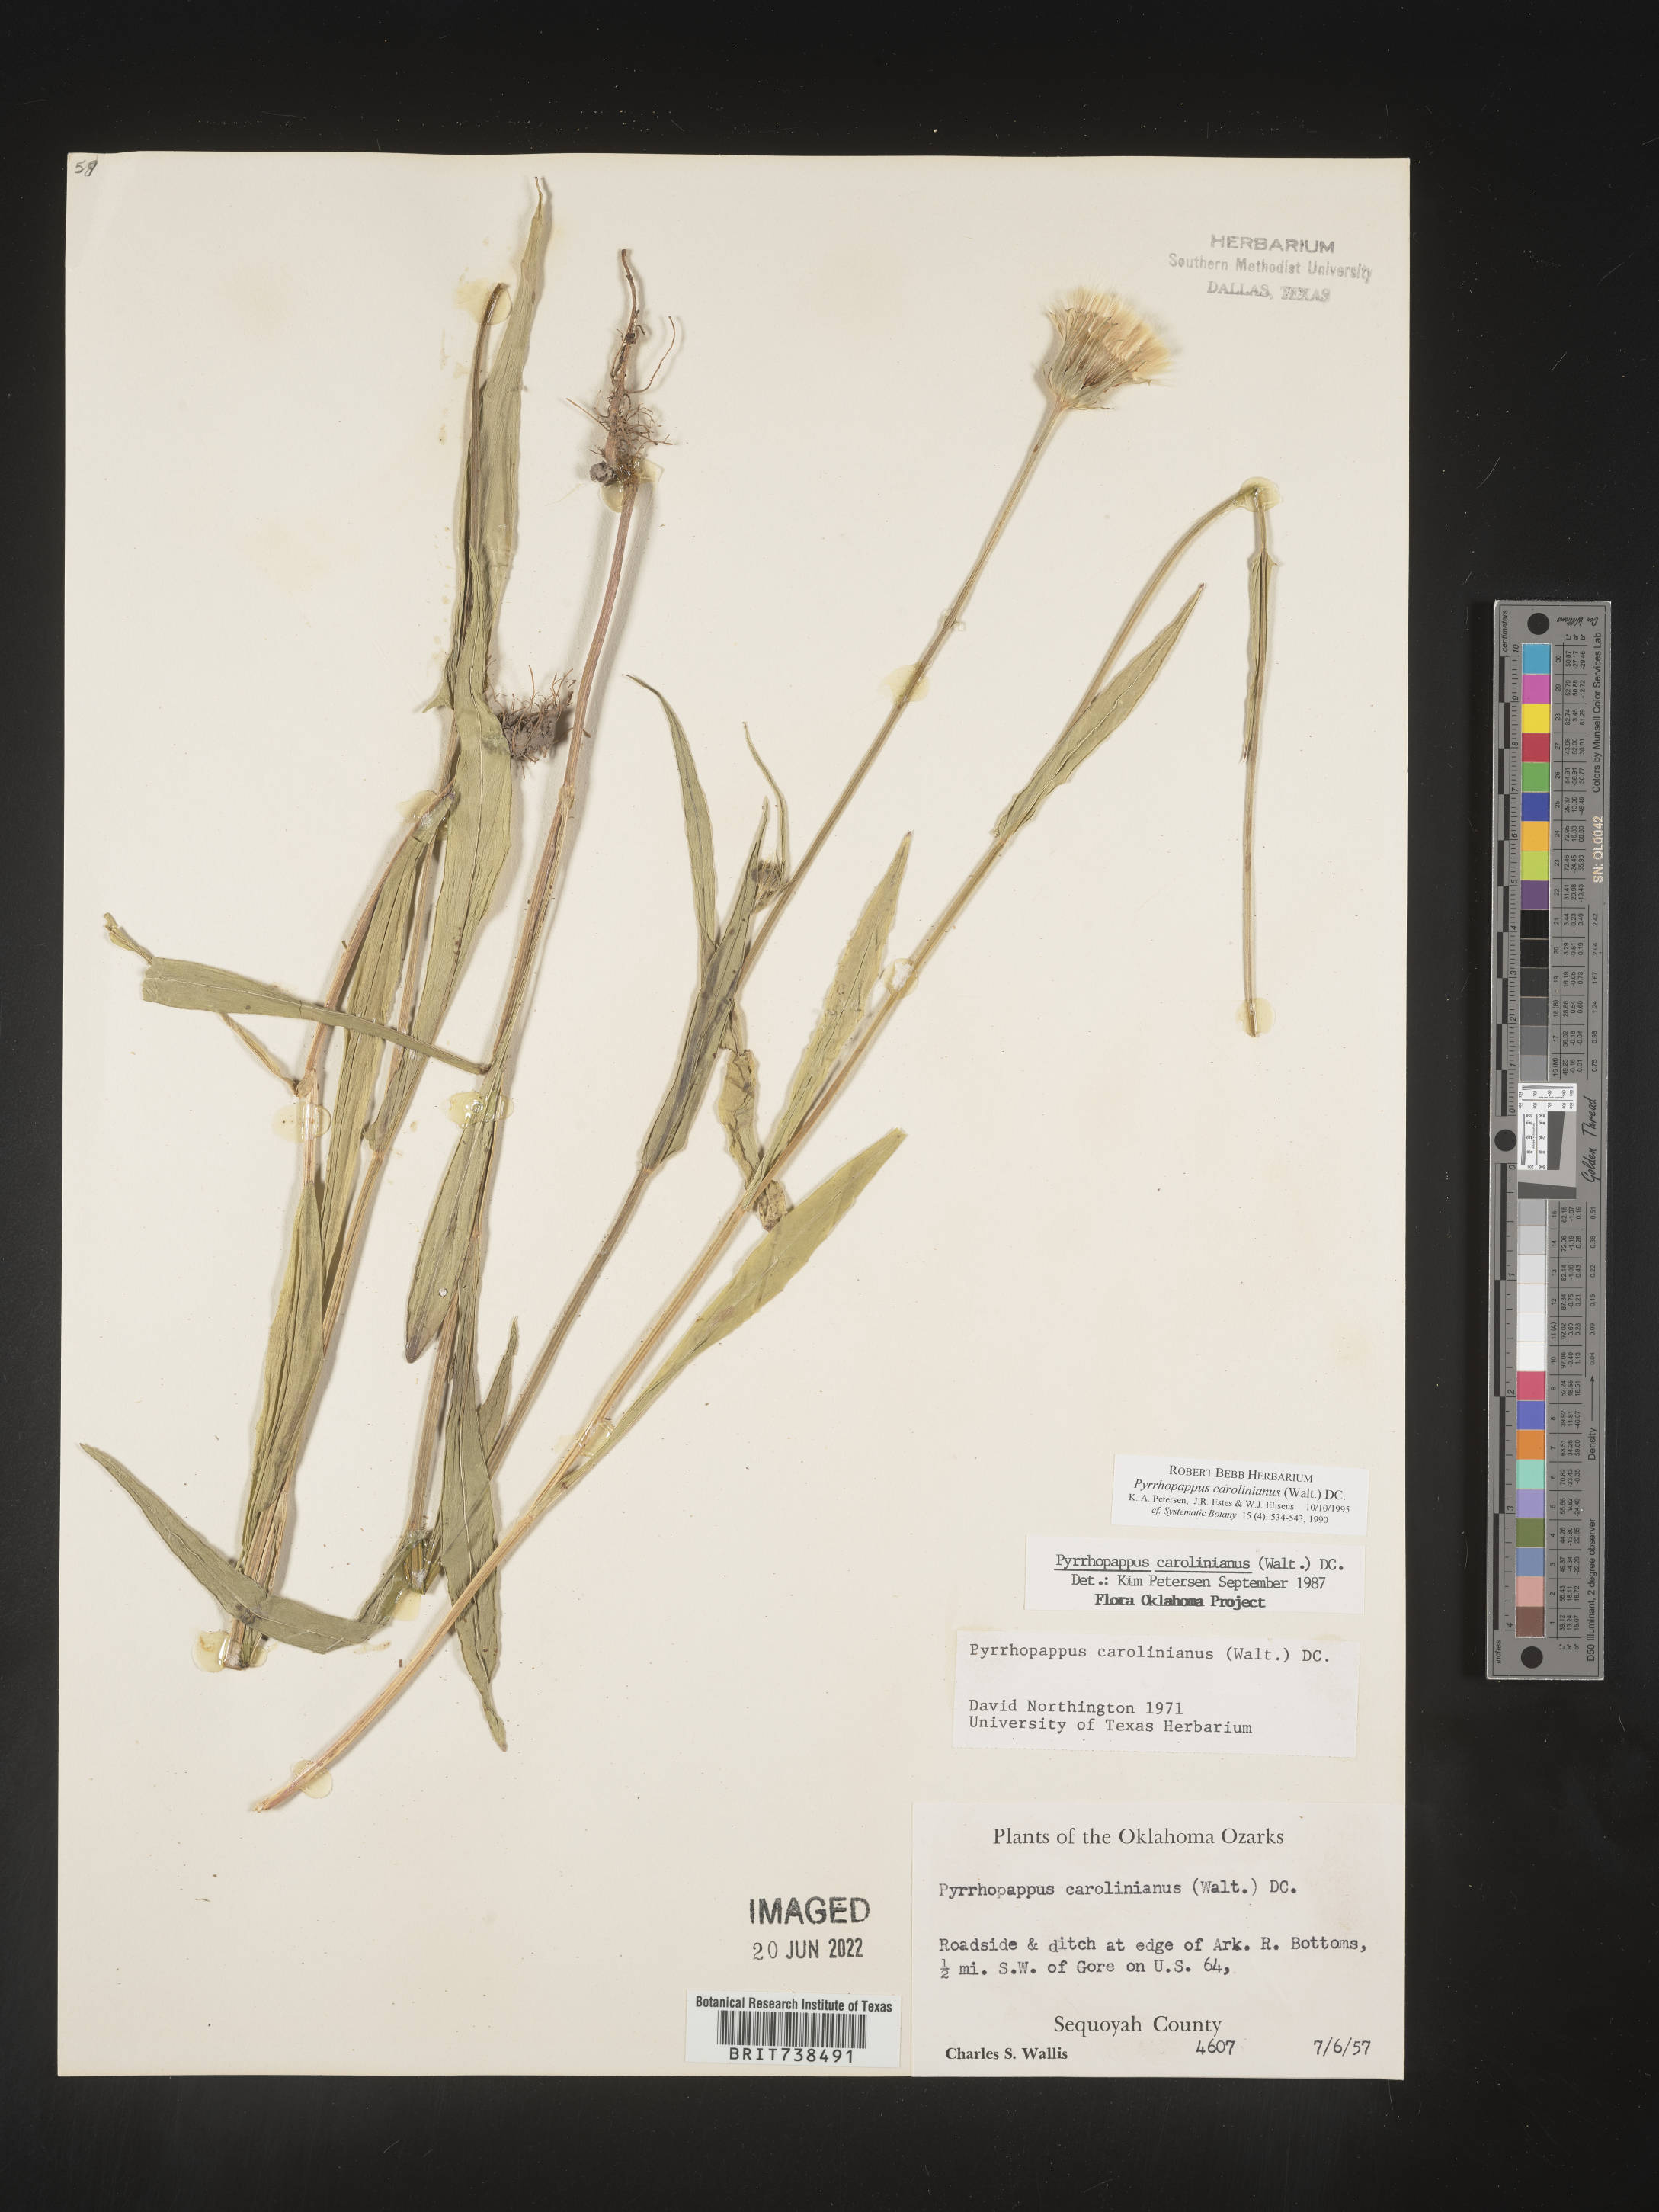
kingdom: Plantae
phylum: Tracheophyta
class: Magnoliopsida
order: Asterales
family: Asteraceae
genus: Pyrrhopappus
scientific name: Pyrrhopappus carolinianus
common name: Carolina desert-chicory
